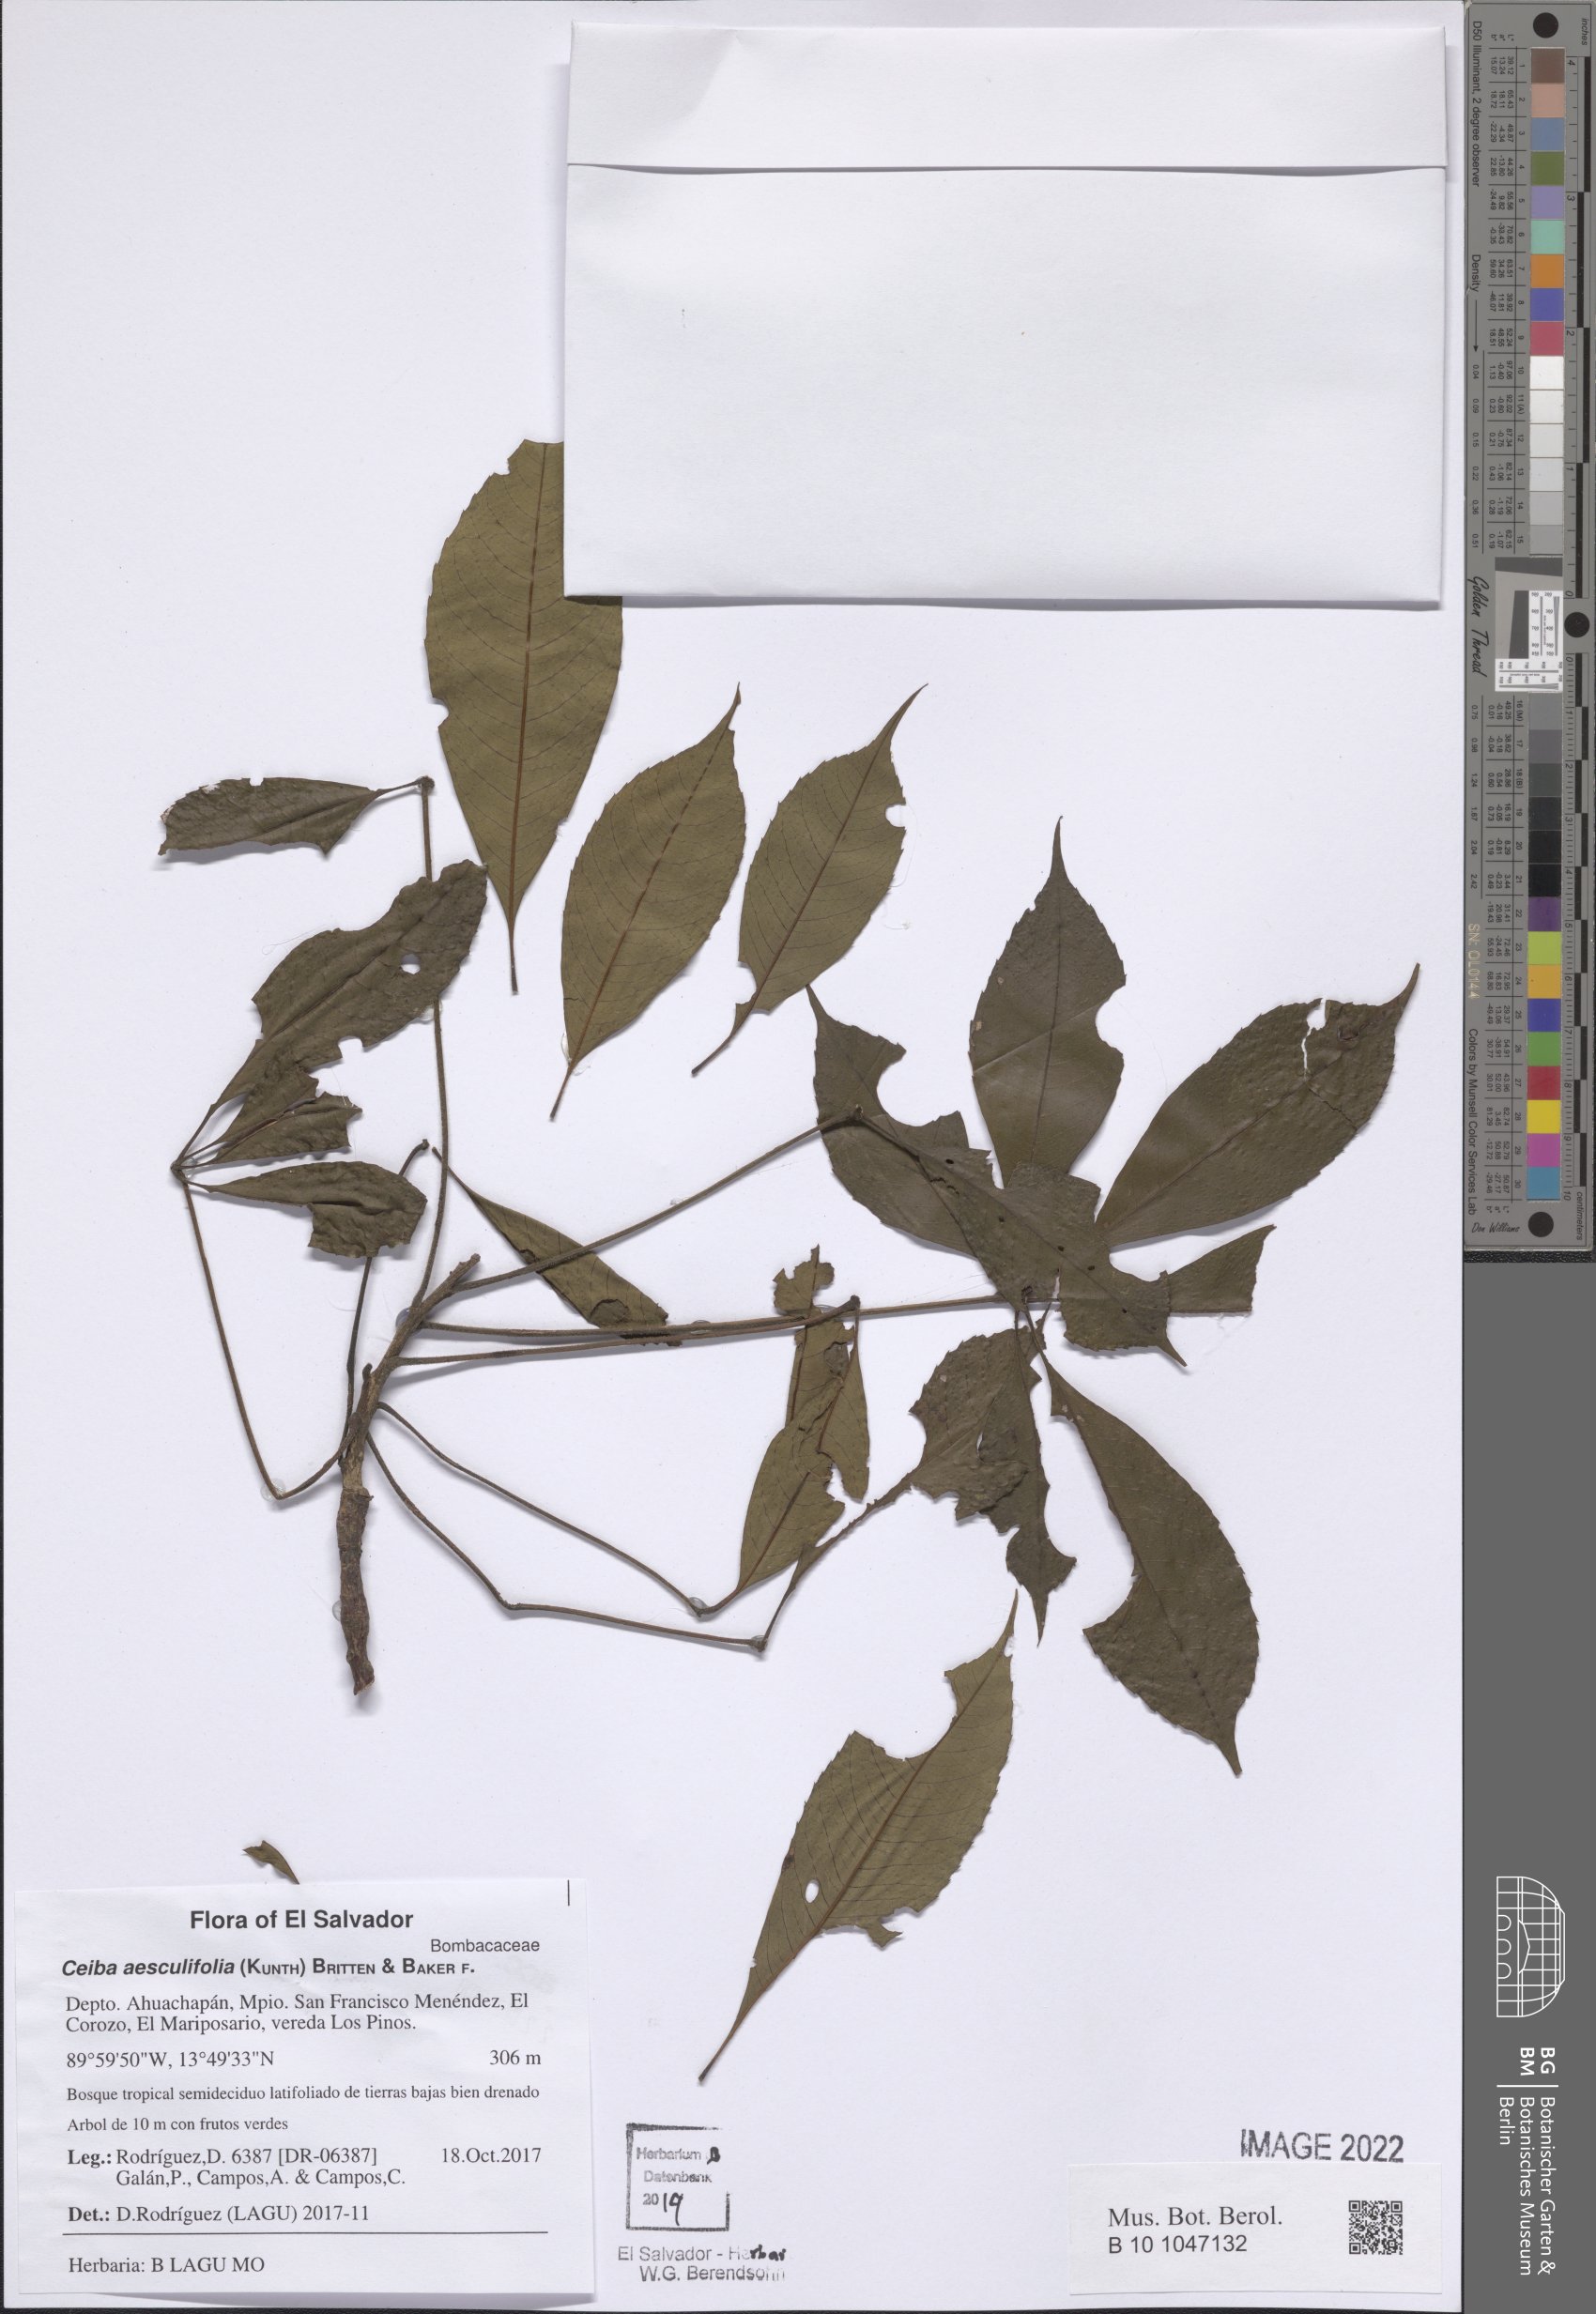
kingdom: Plantae
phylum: Tracheophyta
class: Magnoliopsida
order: Malvales
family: Malvaceae
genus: Ceiba
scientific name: Ceiba aesculifolia
